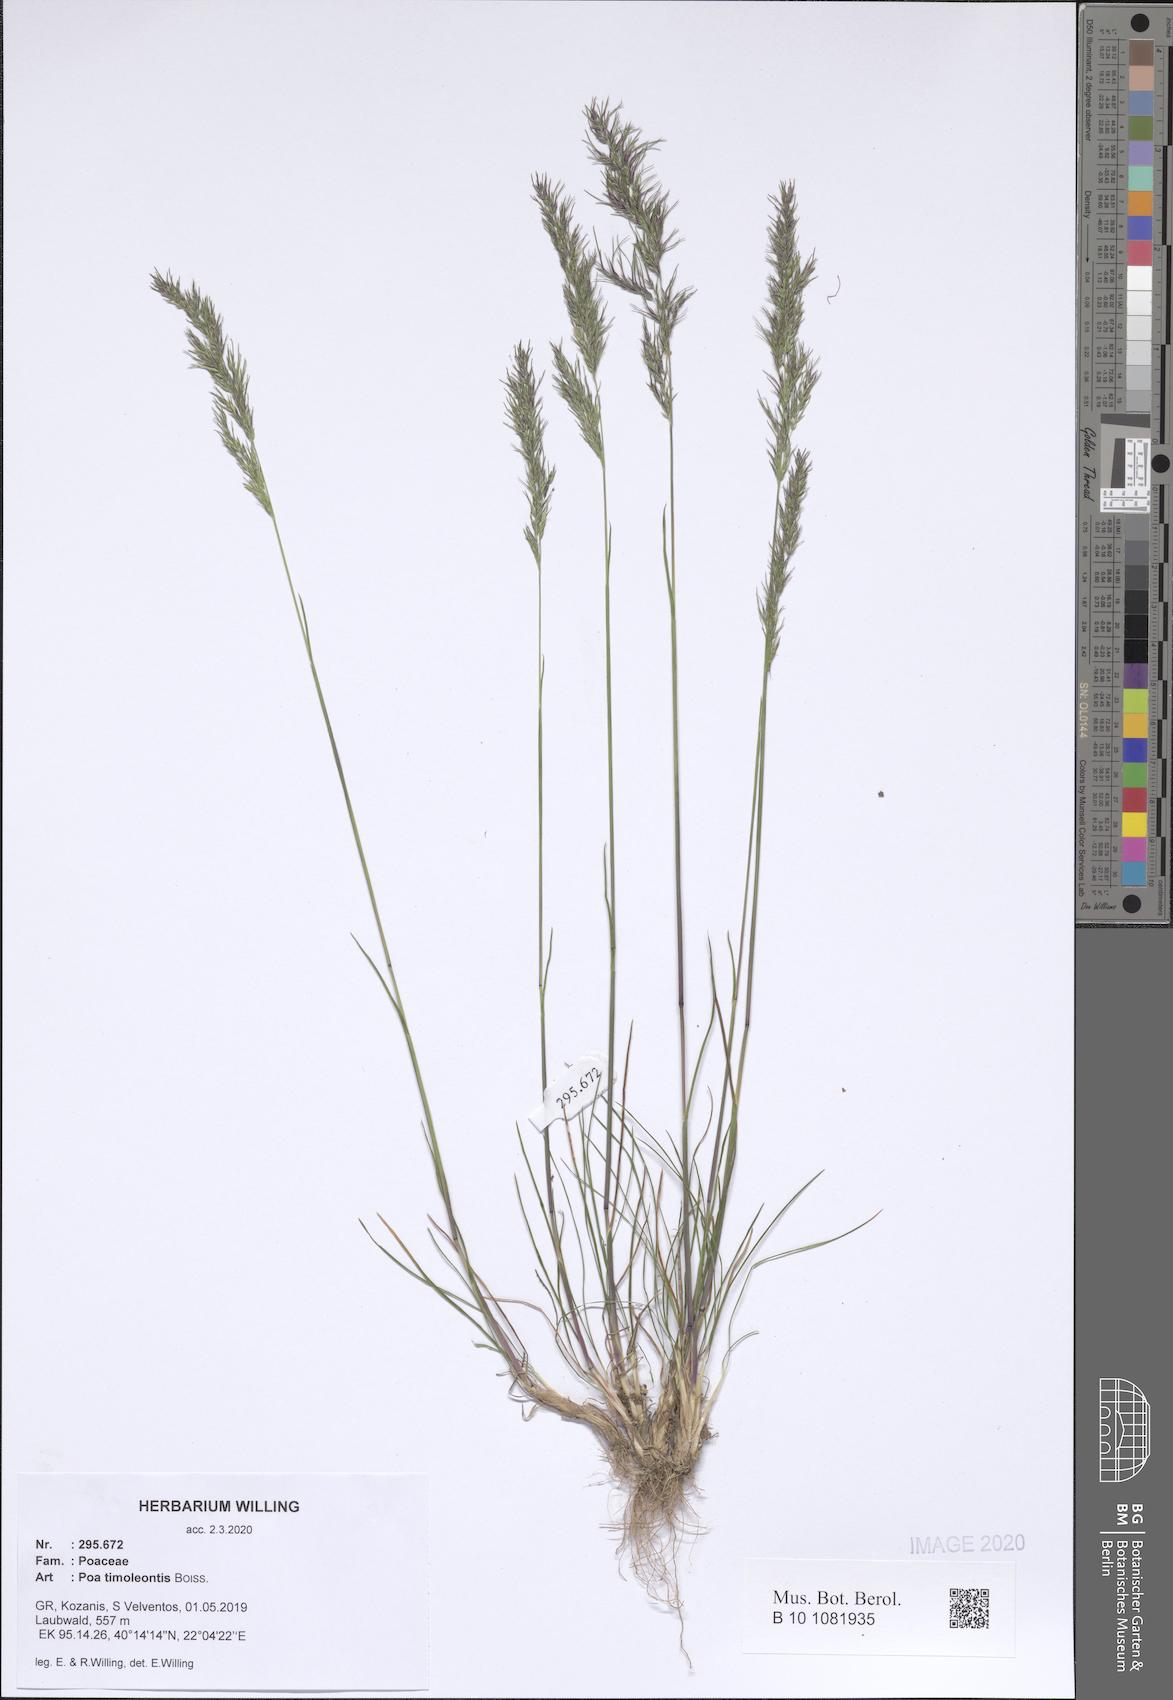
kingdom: Plantae
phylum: Tracheophyta
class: Liliopsida
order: Poales
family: Poaceae
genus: Poa
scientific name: Poa timoleontis
